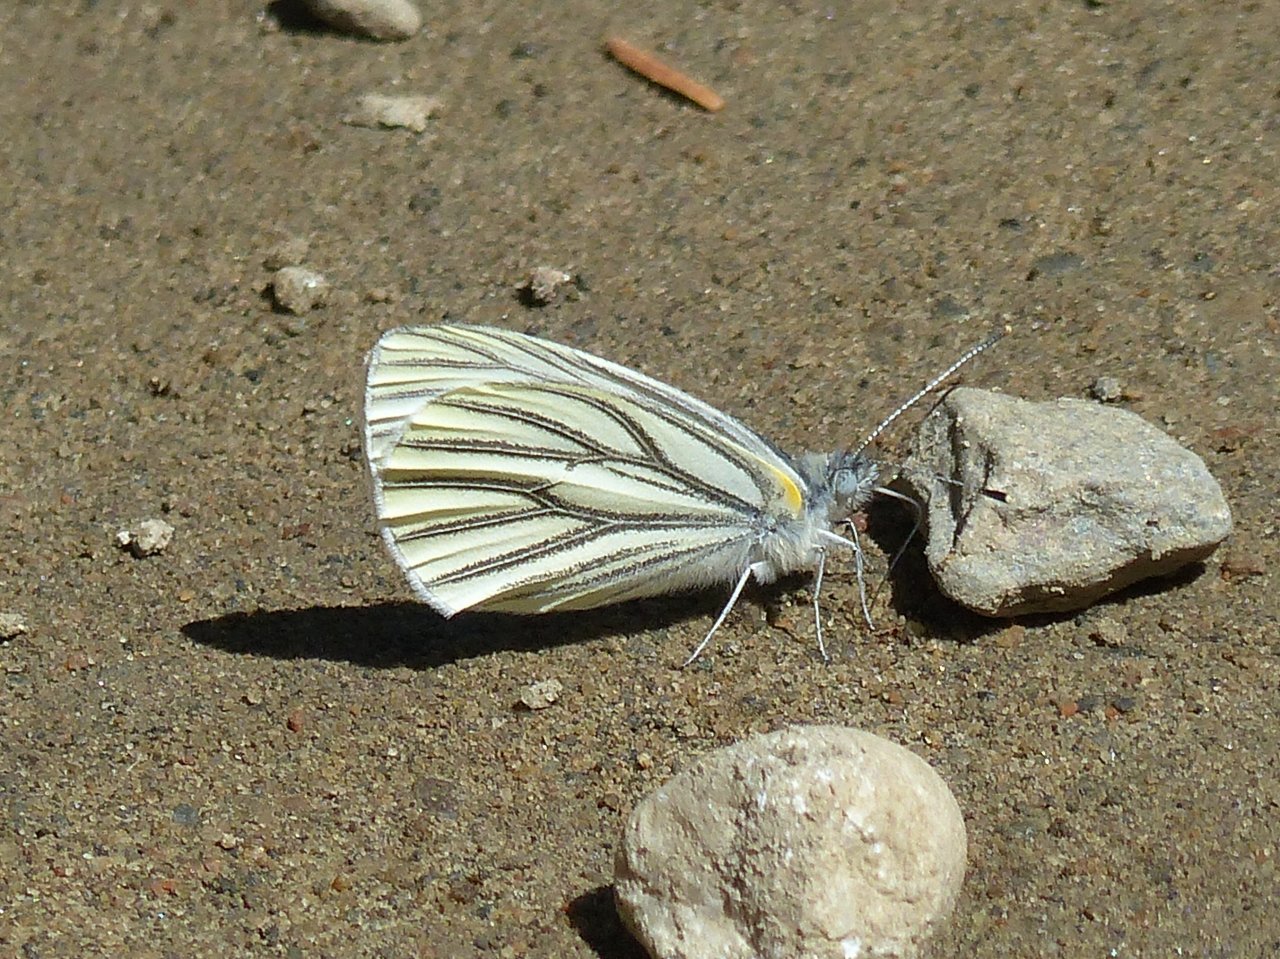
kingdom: Animalia
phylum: Arthropoda
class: Insecta
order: Lepidoptera
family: Pieridae
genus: Pieris
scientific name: Pieris oleracea
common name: Mustard White
